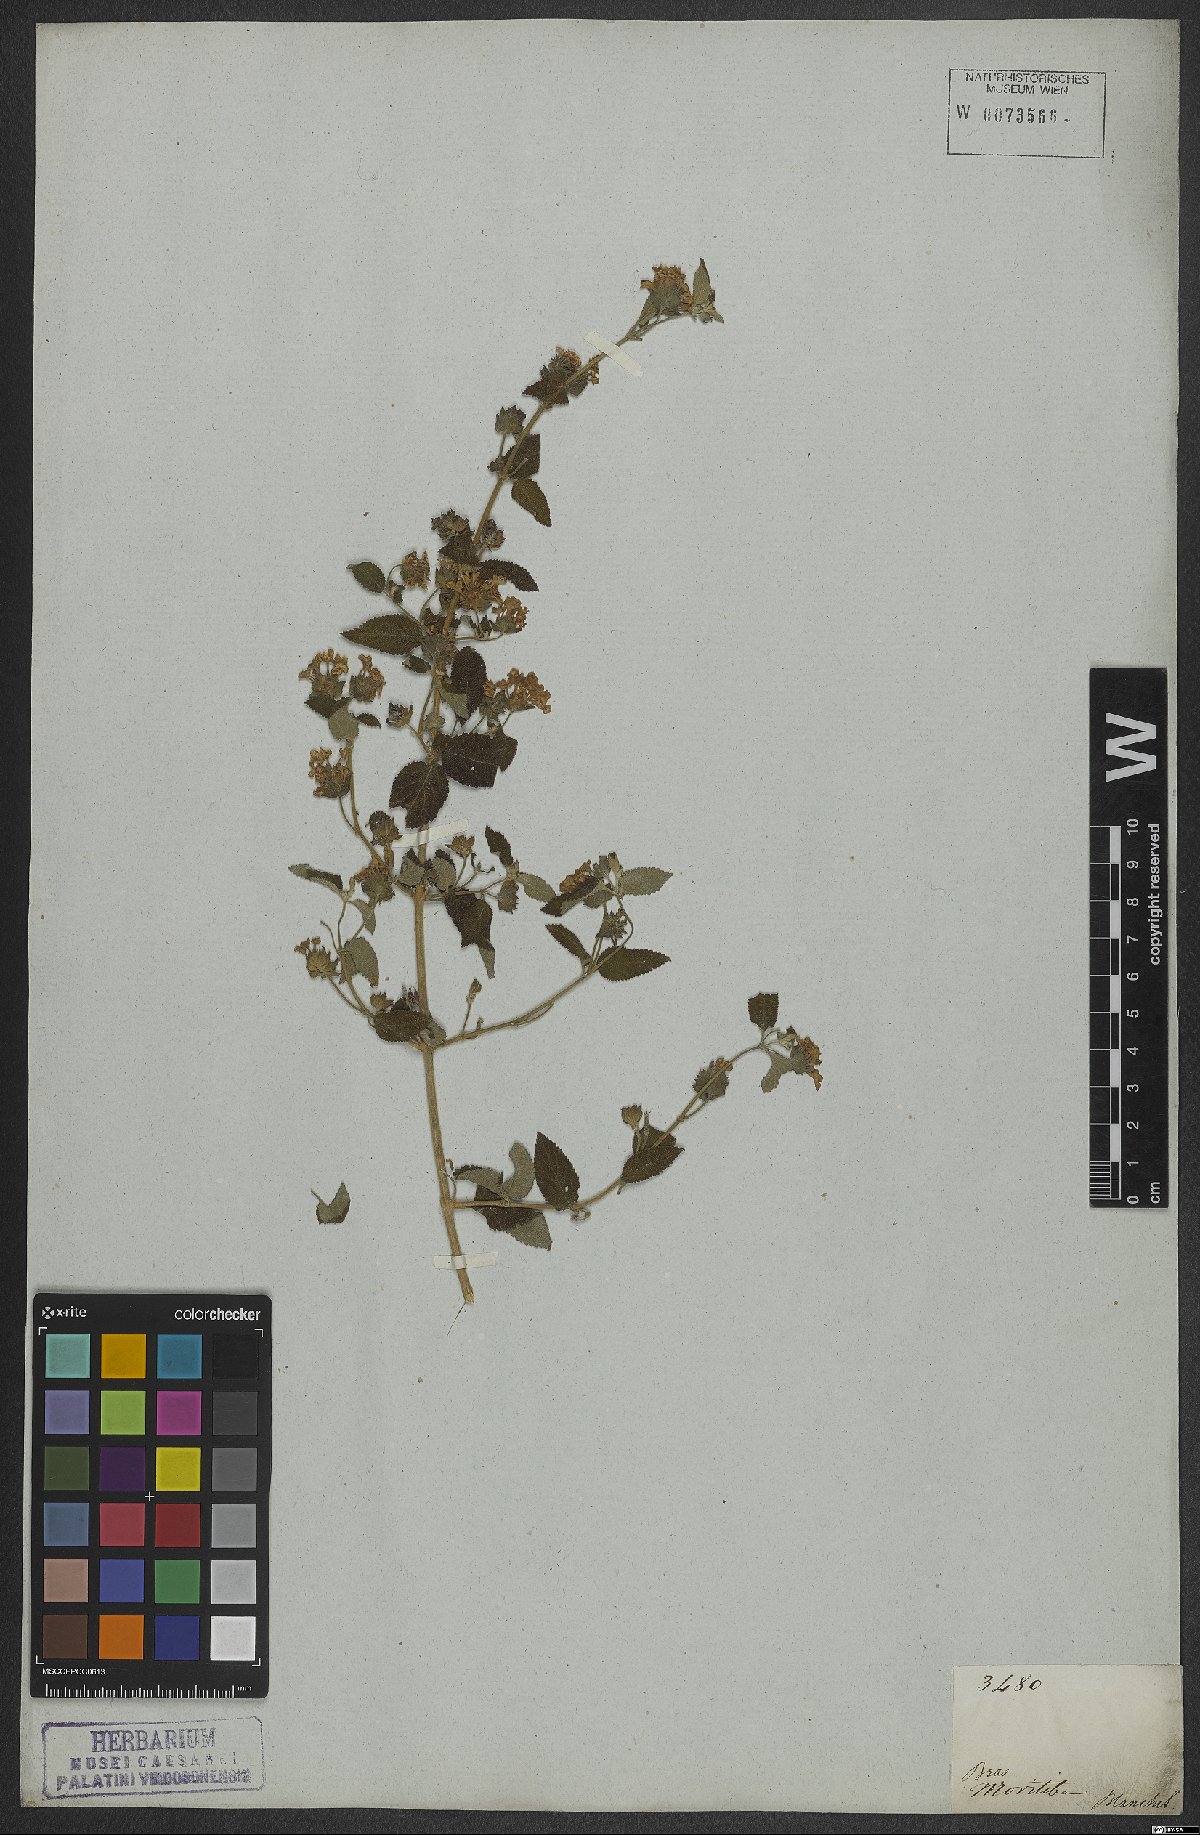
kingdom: Plantae
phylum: Tracheophyta
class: Magnoliopsida
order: Lamiales
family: Verbenaceae
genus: Lantana
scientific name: Lantana fucata
